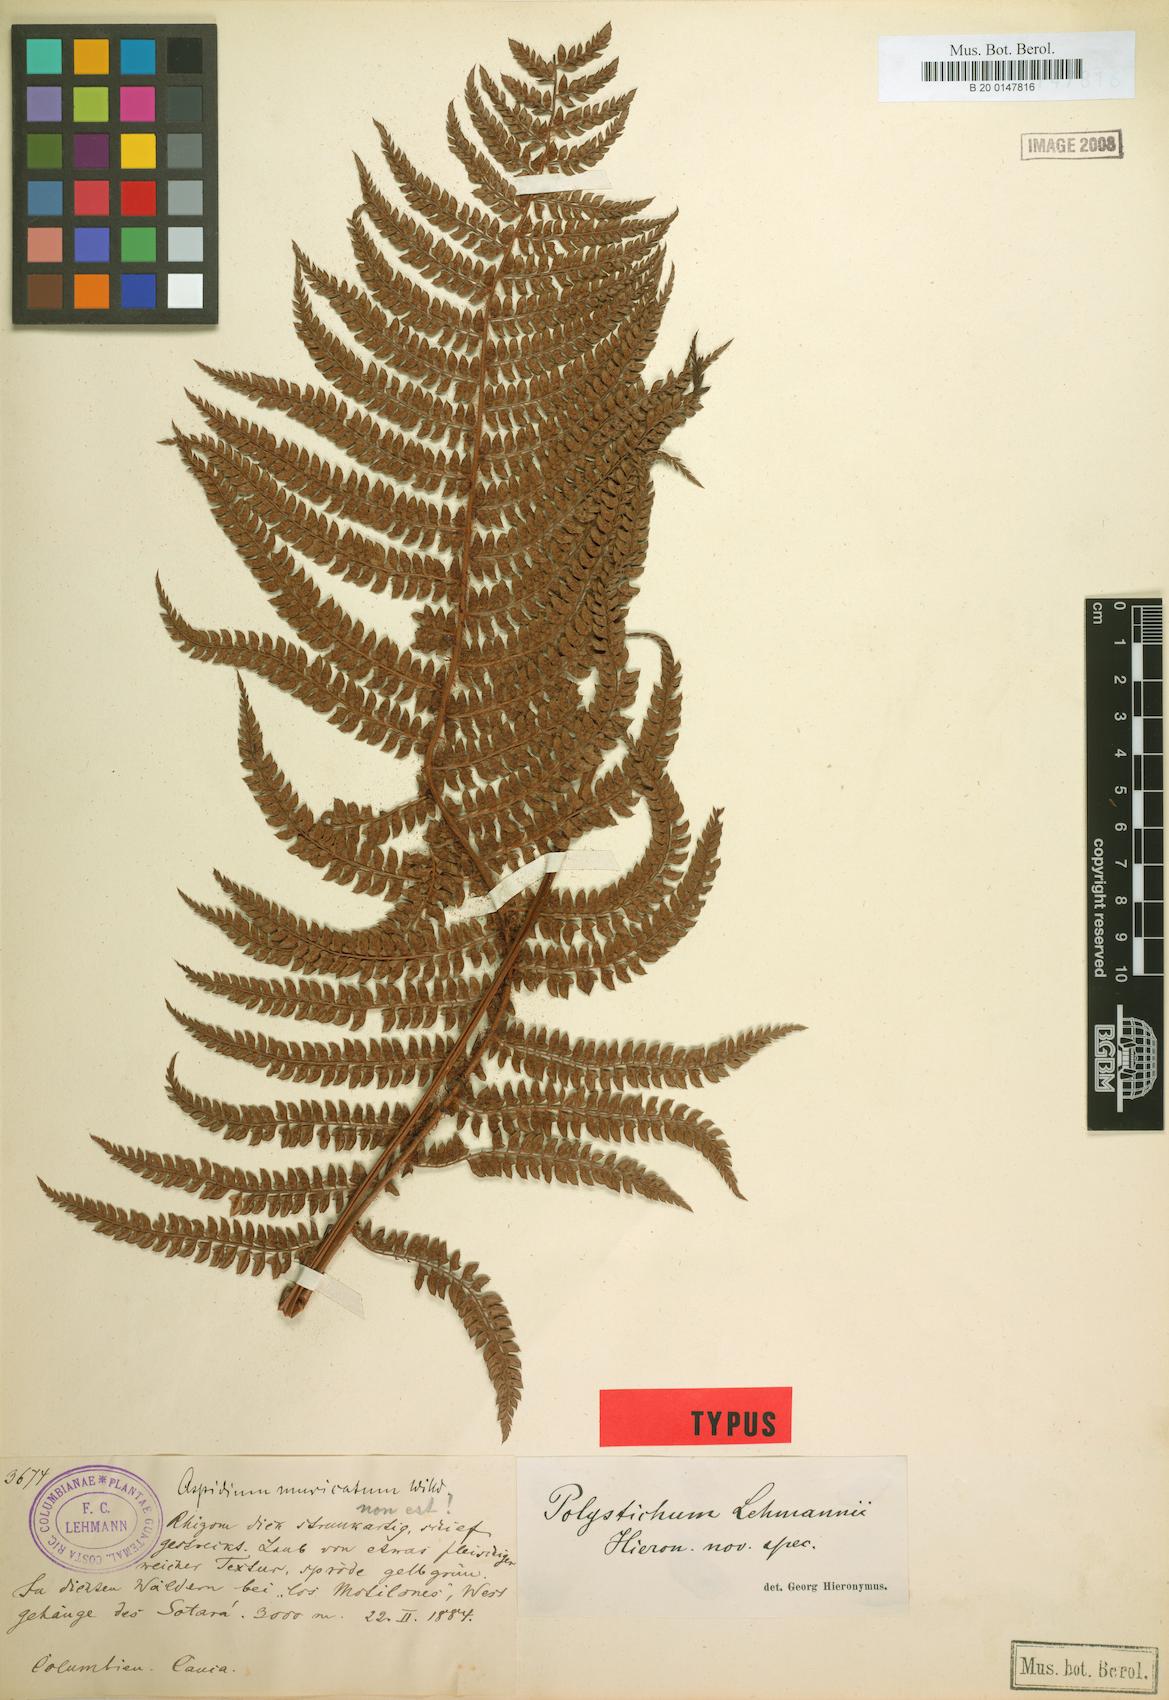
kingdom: Plantae
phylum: Tracheophyta
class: Polypodiopsida
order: Polypodiales
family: Dryopteridaceae
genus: Polystichum
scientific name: Polystichum lehmannii
